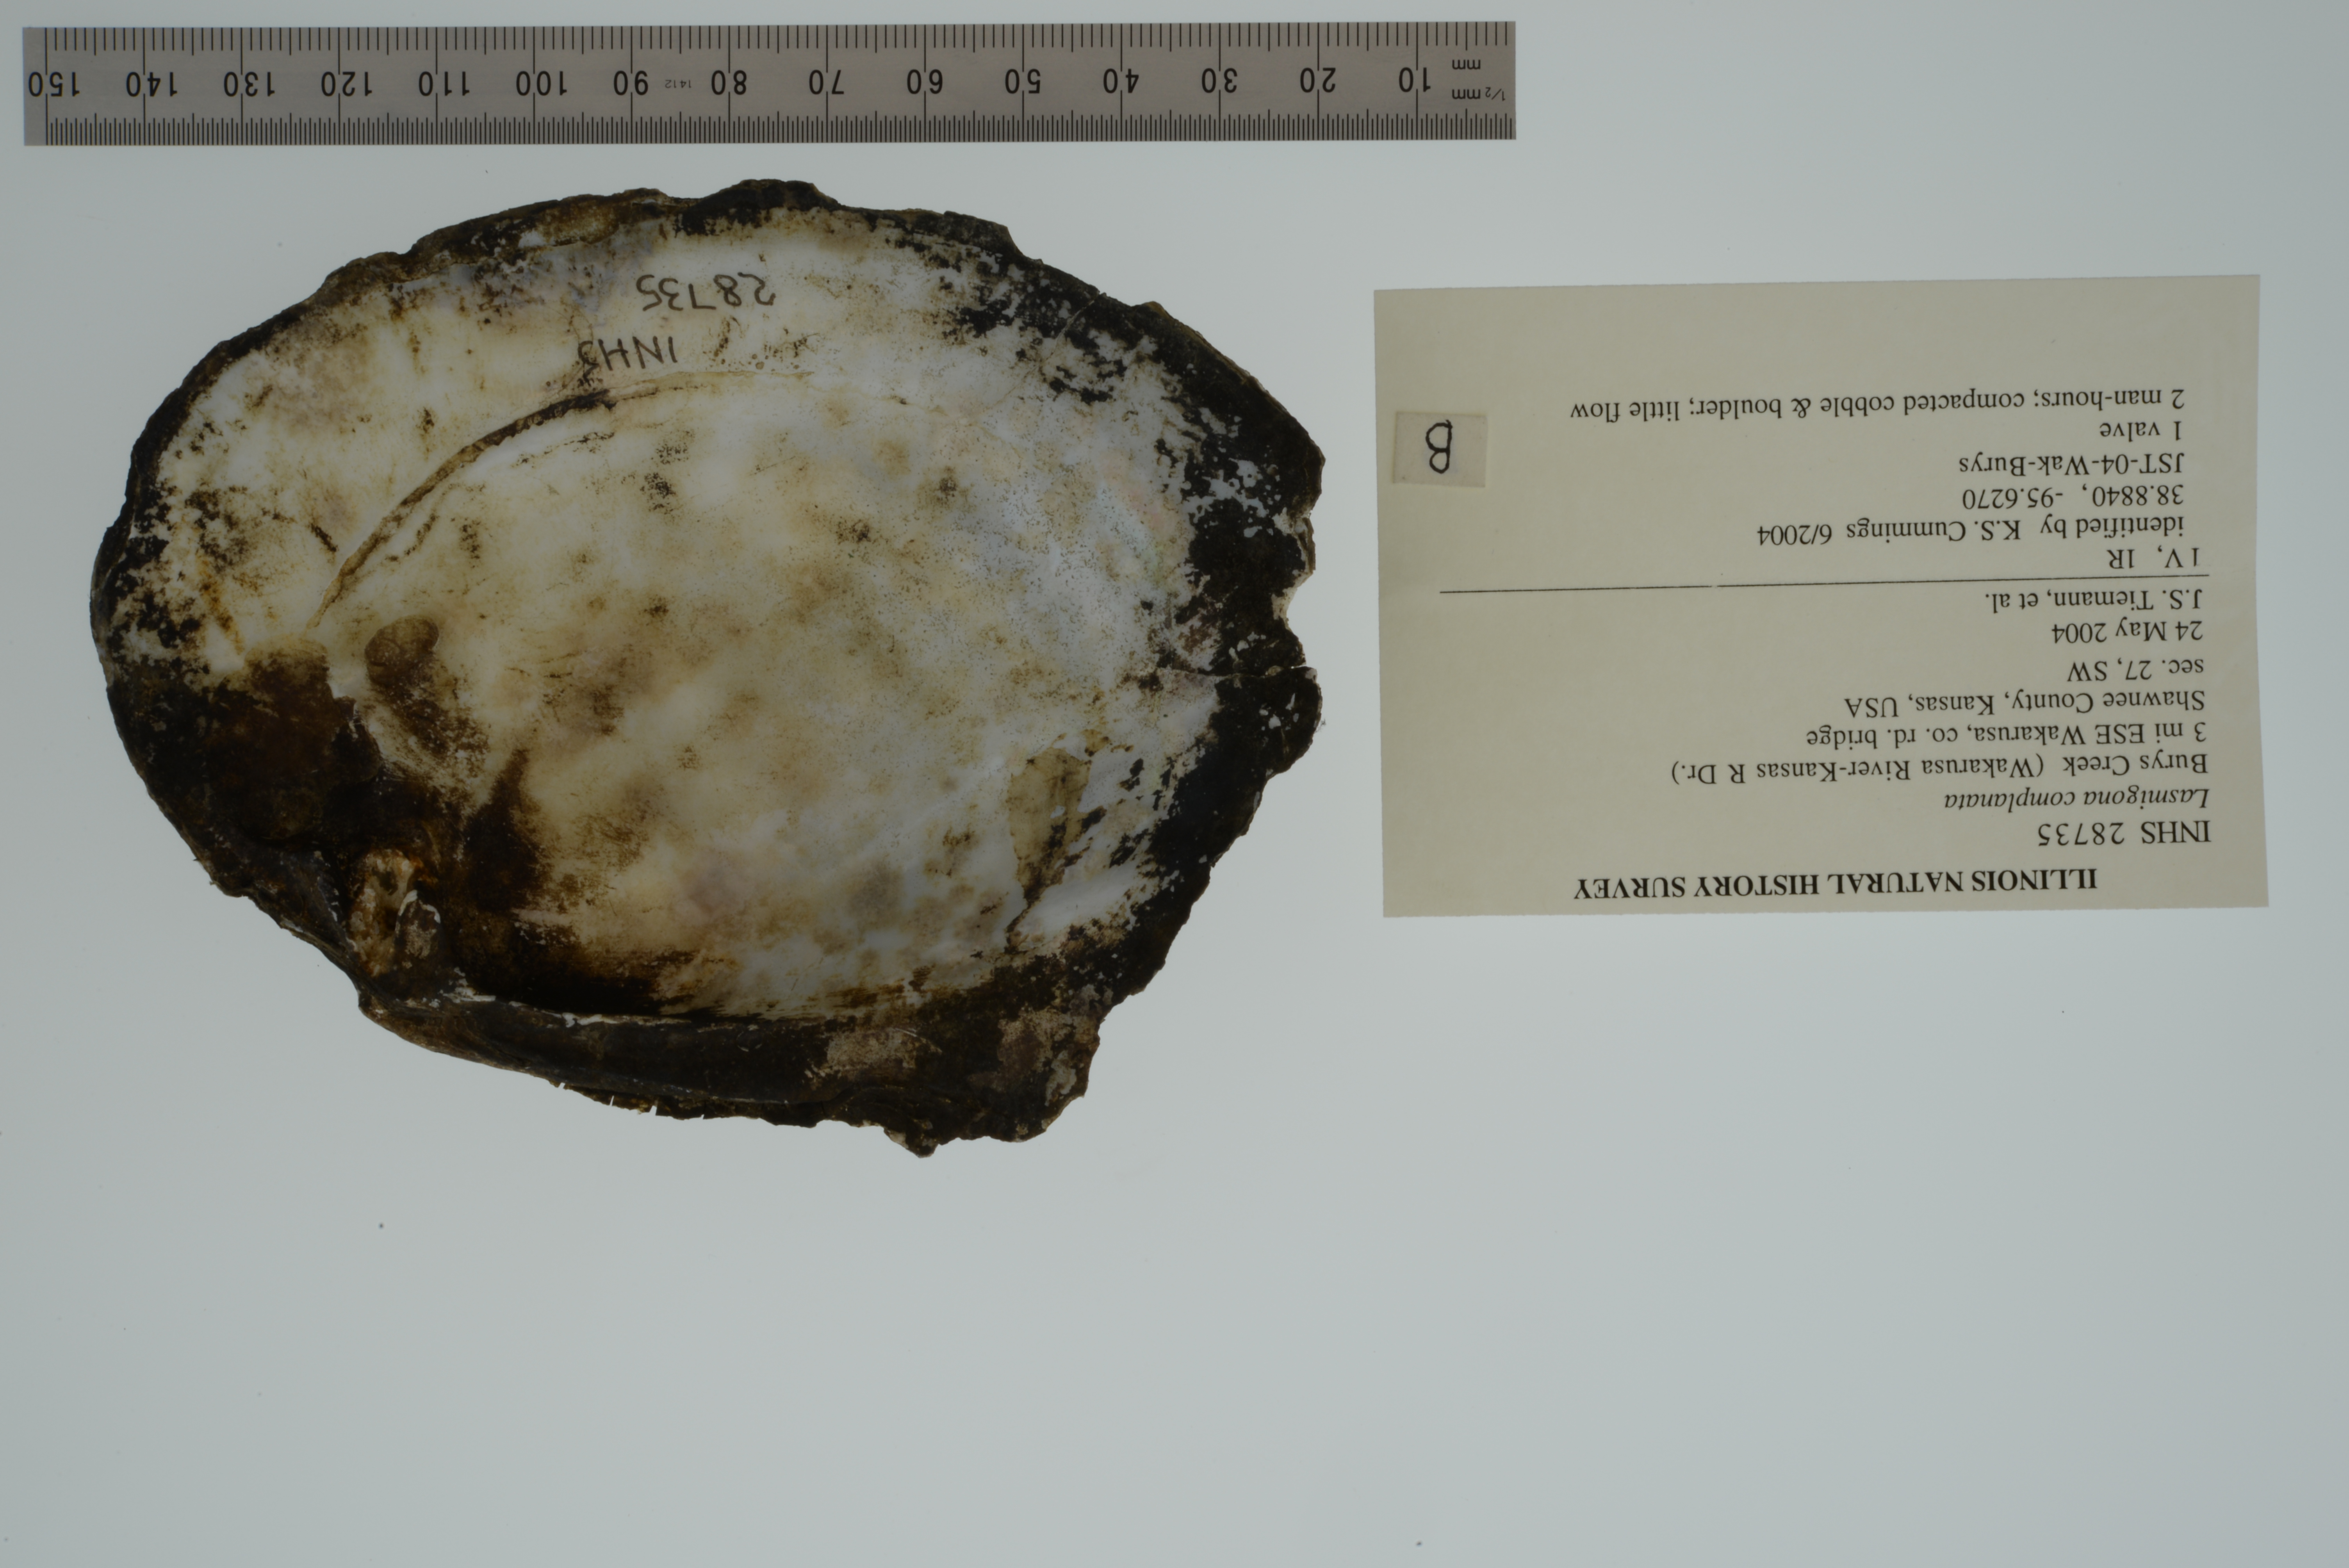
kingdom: Animalia
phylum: Mollusca
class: Bivalvia
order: Unionida
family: Unionidae
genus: Lasmigona
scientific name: Lasmigona complanata
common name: White heelsplitter
